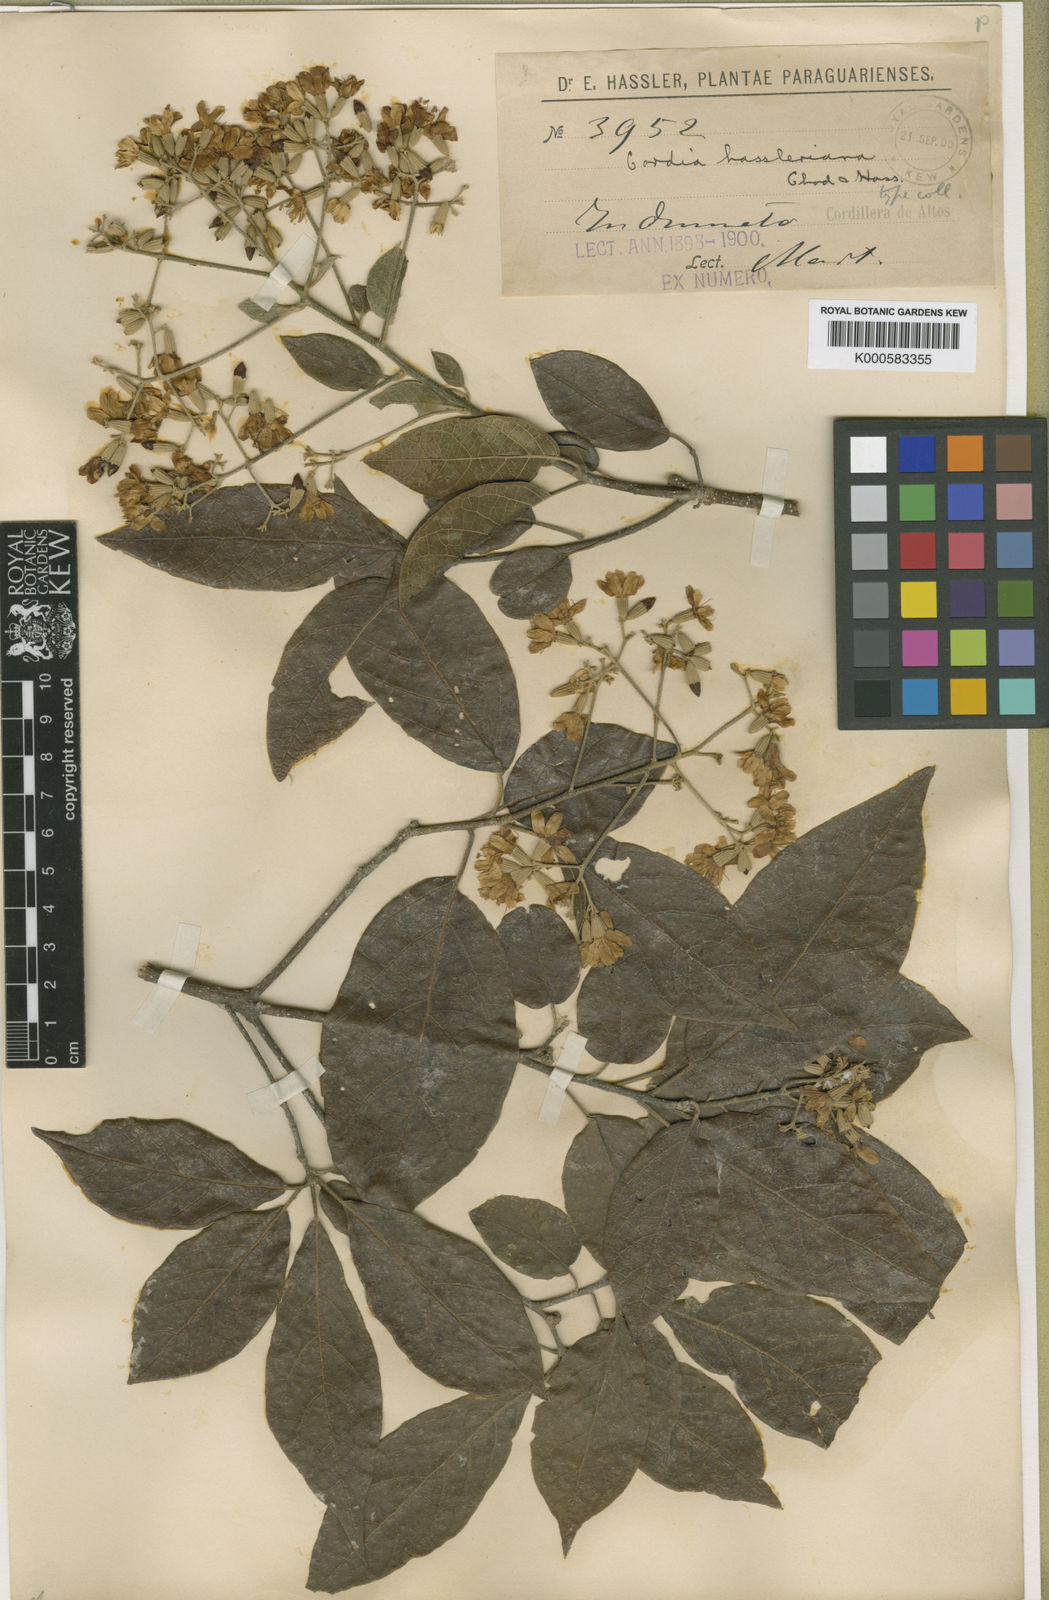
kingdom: Plantae
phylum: Tracheophyta
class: Magnoliopsida
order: Boraginales
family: Cordiaceae
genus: Cordia
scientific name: Cordia trichotoma
